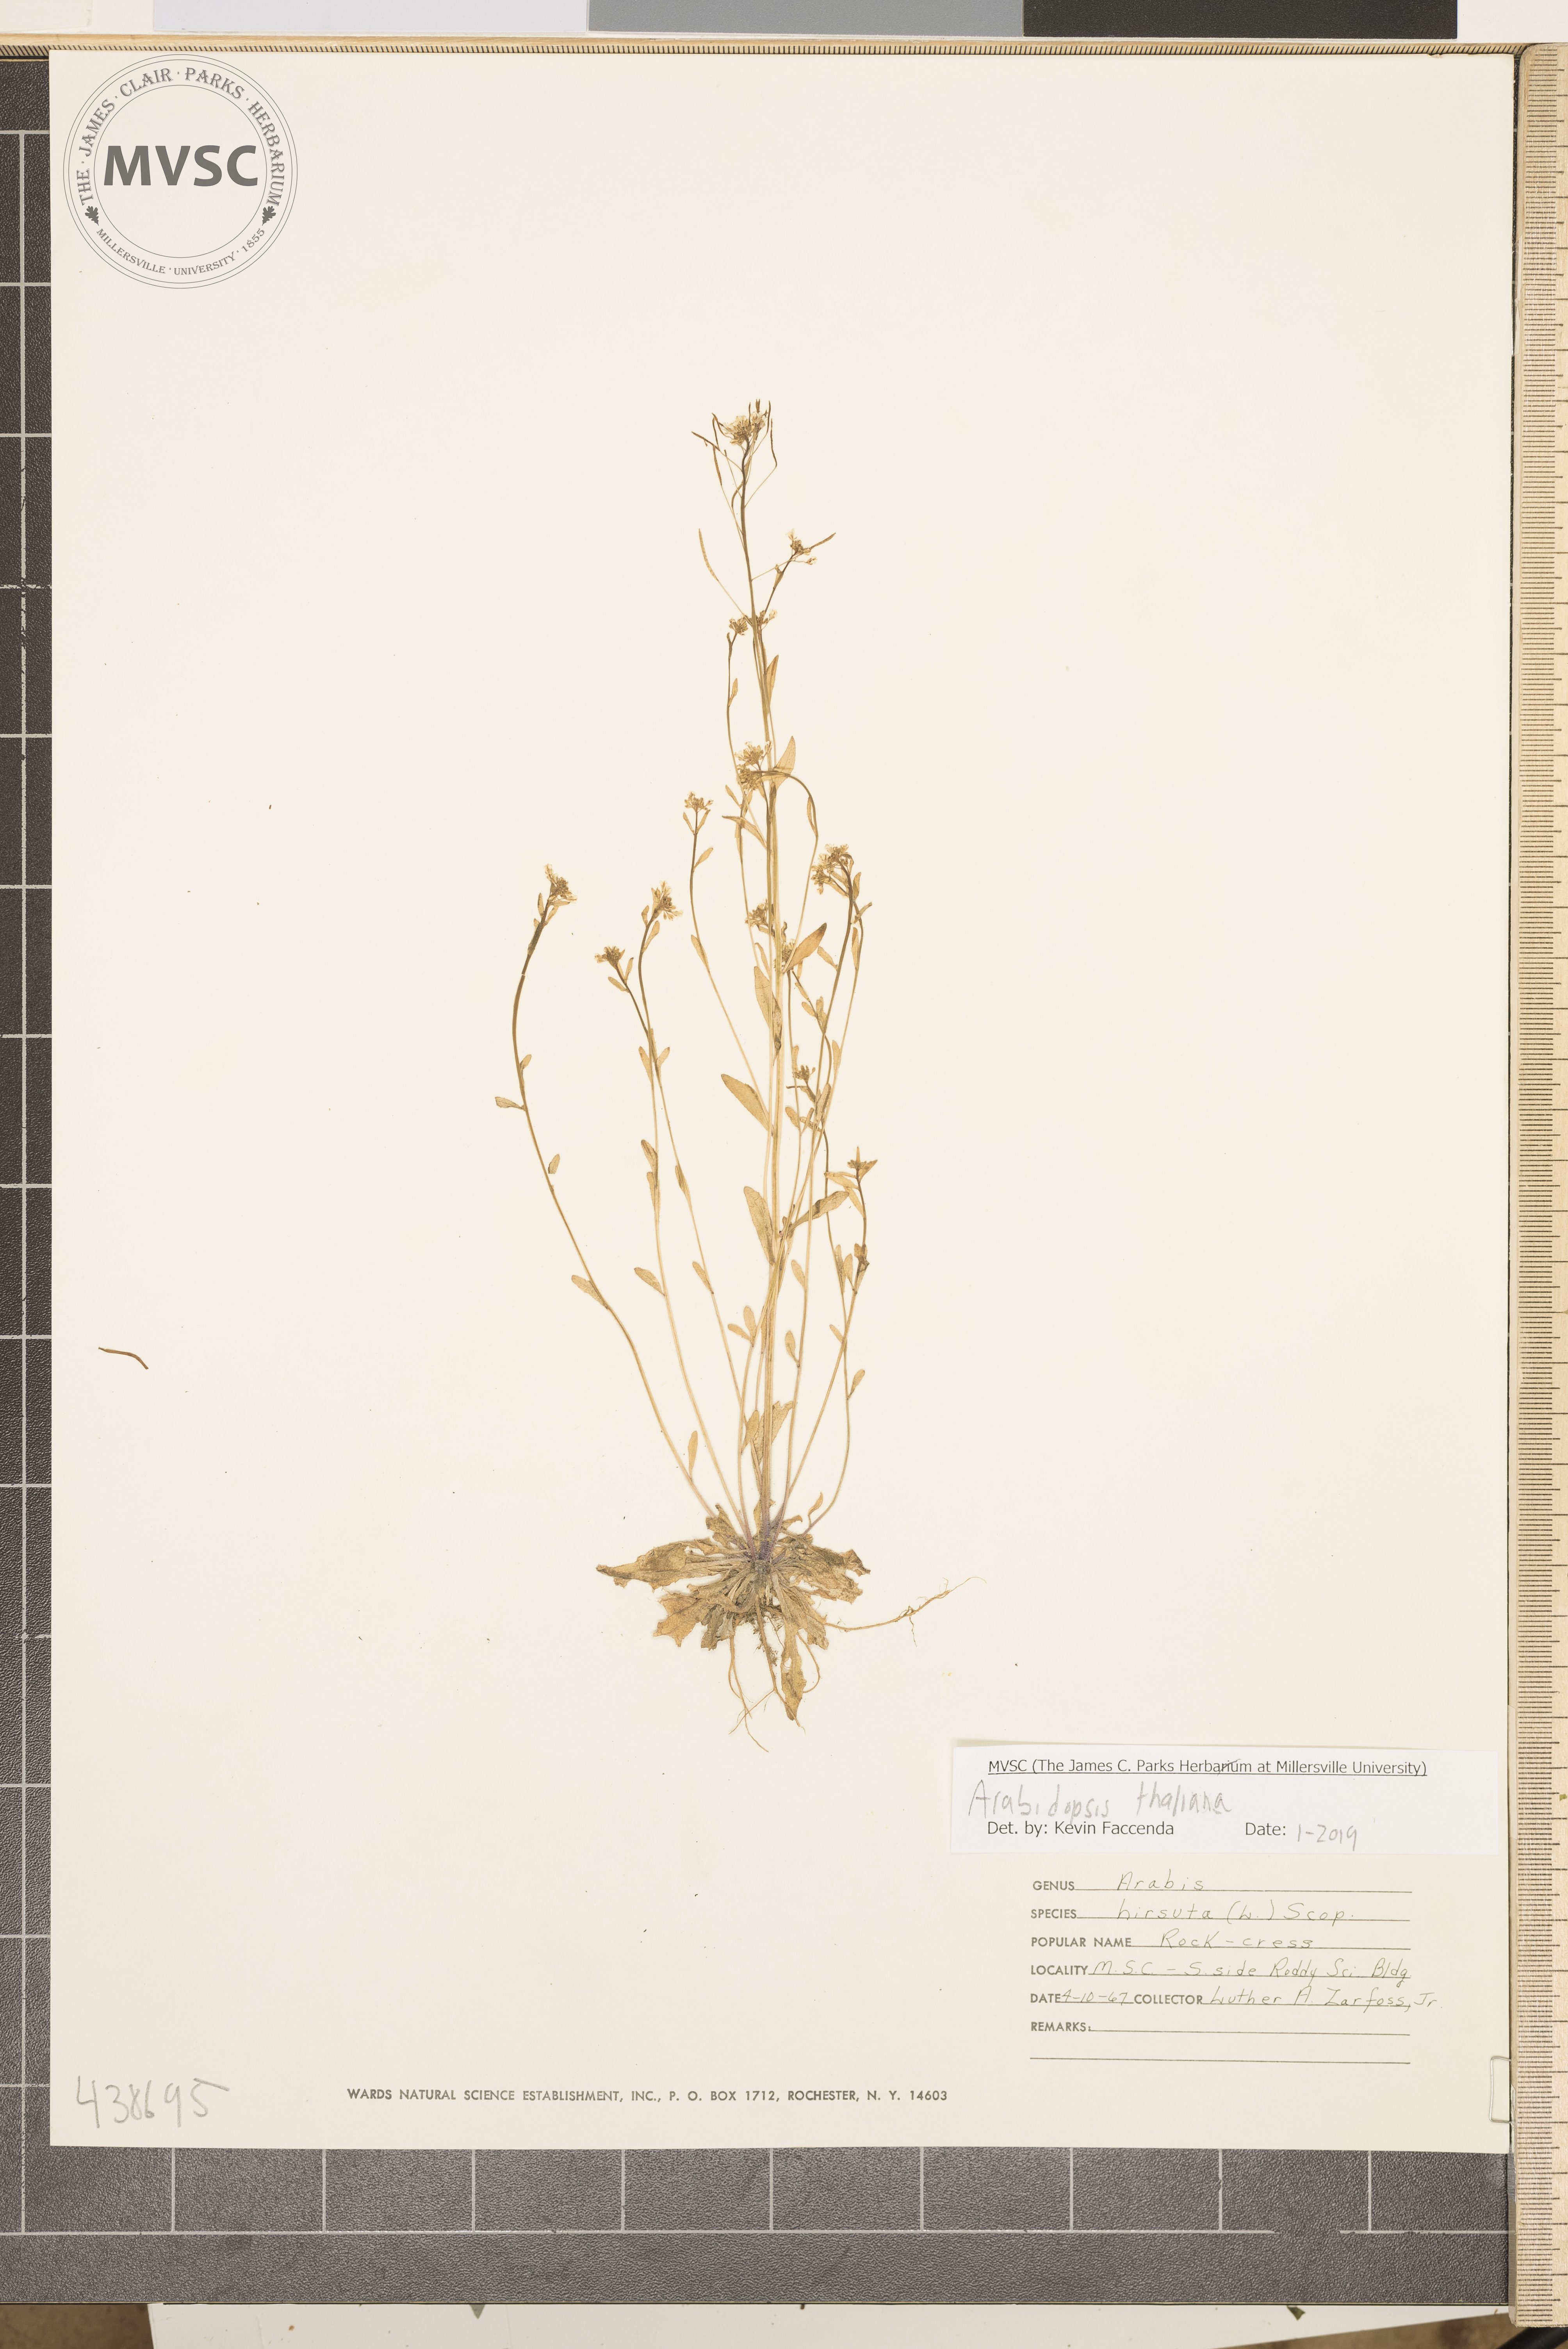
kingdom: Plantae
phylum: Tracheophyta
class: Magnoliopsida
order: Brassicales
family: Brassicaceae
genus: Arabidopsis
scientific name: Arabidopsis thaliana
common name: Thale cress
